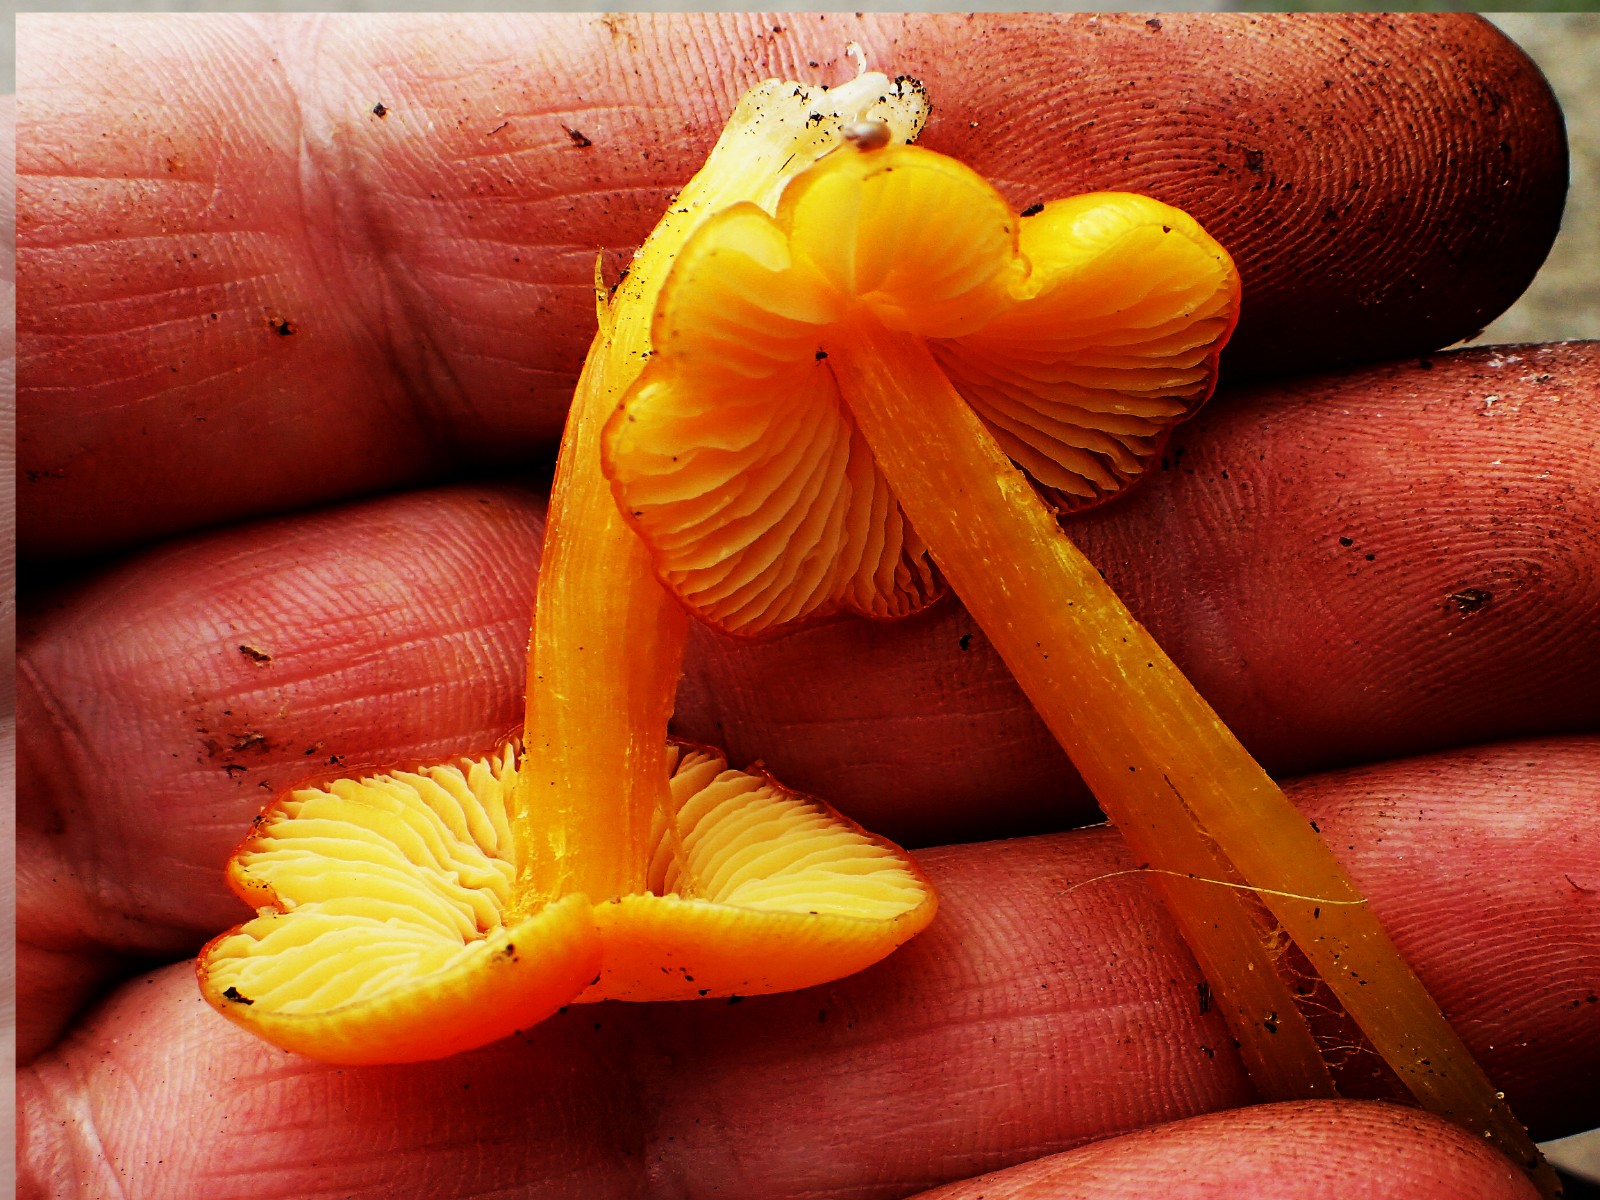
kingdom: Fungi
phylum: Basidiomycota
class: Agaricomycetes
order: Agaricales
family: Hygrophoraceae
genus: Hygrocybe
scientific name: Hygrocybe
